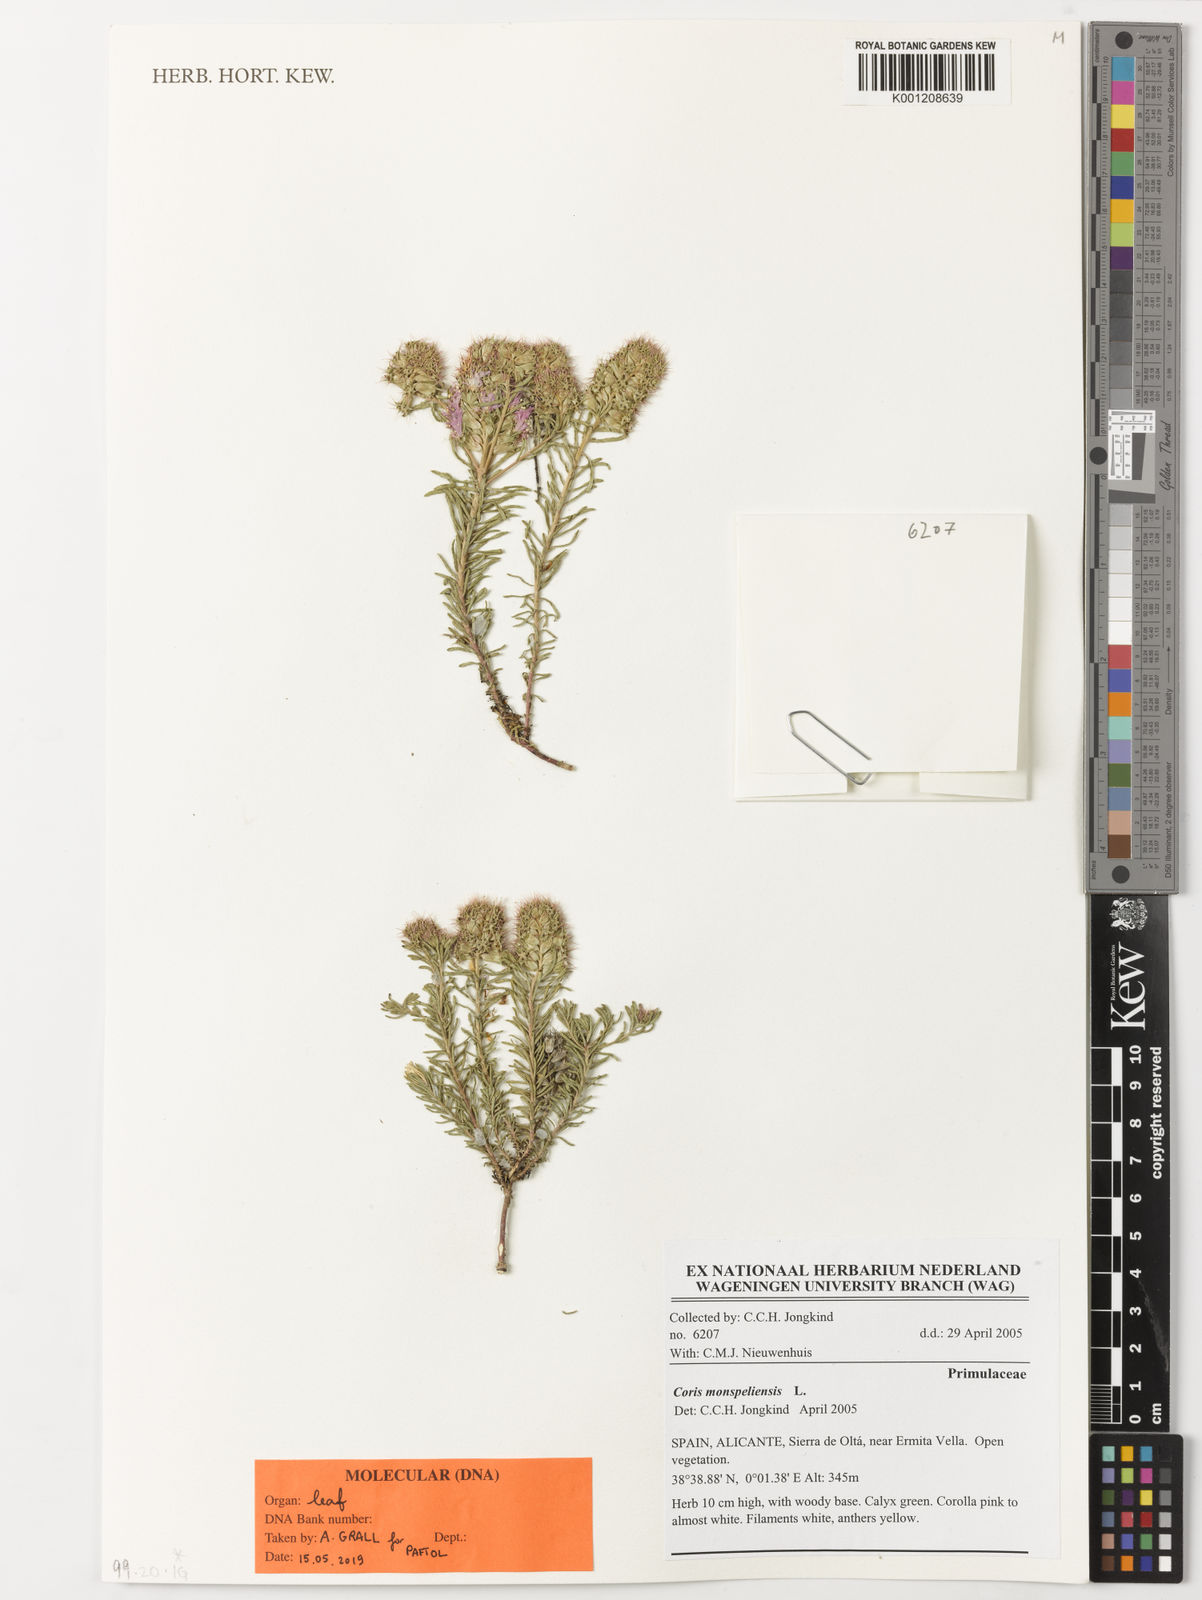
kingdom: Plantae
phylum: Tracheophyta
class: Magnoliopsida
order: Ericales
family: Primulaceae
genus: Coris
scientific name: Coris monspeliensis
